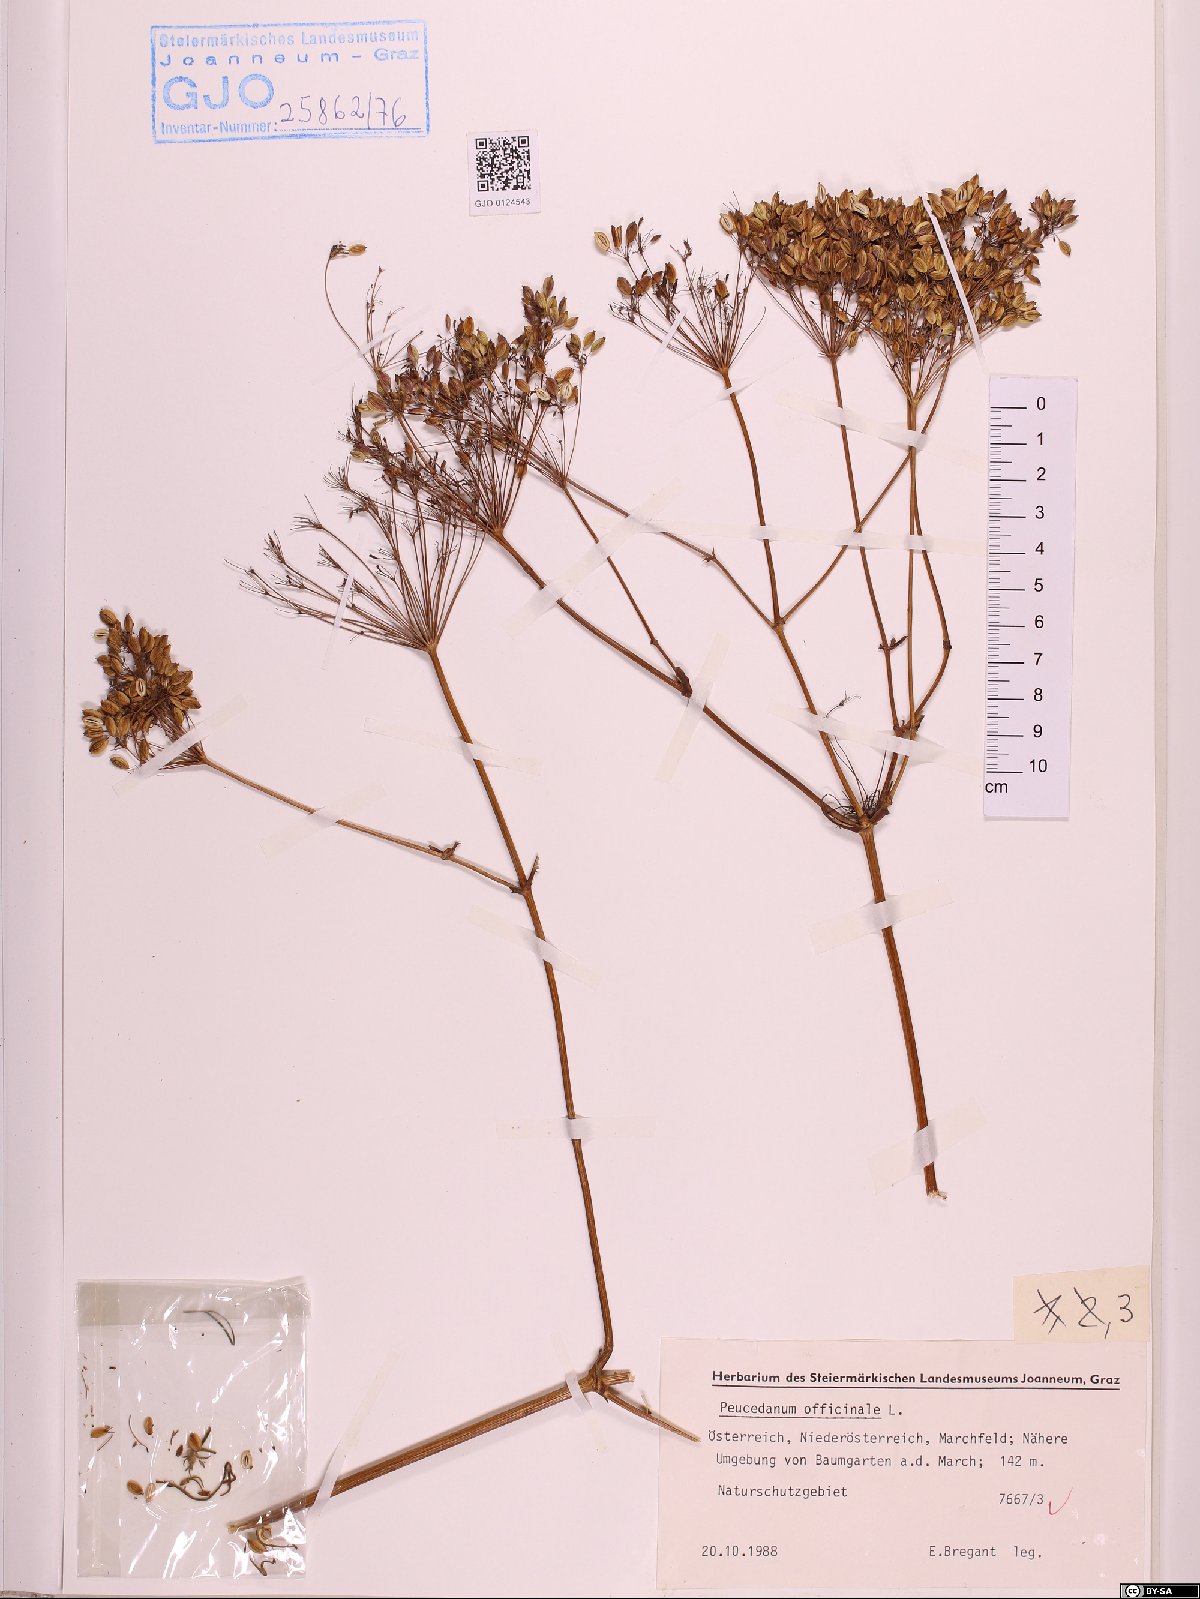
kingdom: Plantae
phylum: Tracheophyta
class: Magnoliopsida
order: Apiales
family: Apiaceae
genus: Peucedanum
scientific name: Peucedanum officinale
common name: Sulphurweed
